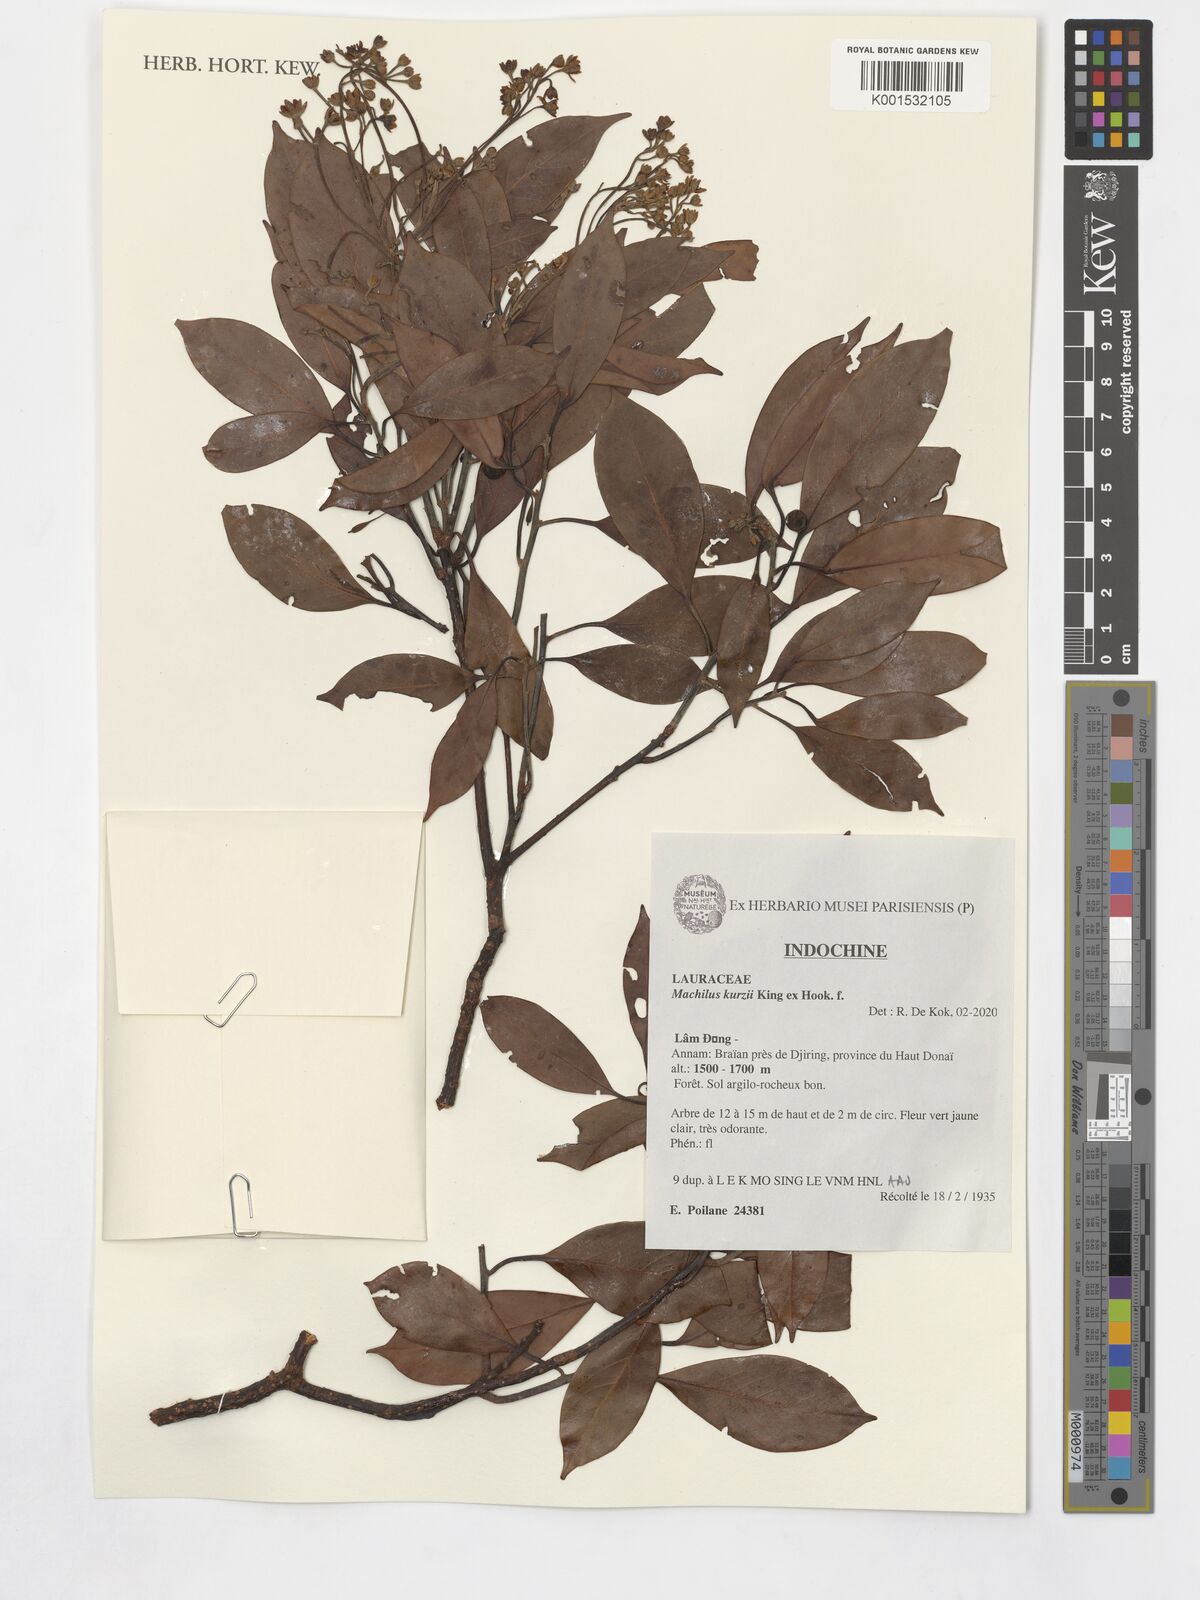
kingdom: Plantae
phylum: Tracheophyta
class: Magnoliopsida
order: Laurales
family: Lauraceae
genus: Machilus
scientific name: Machilus kurzii
